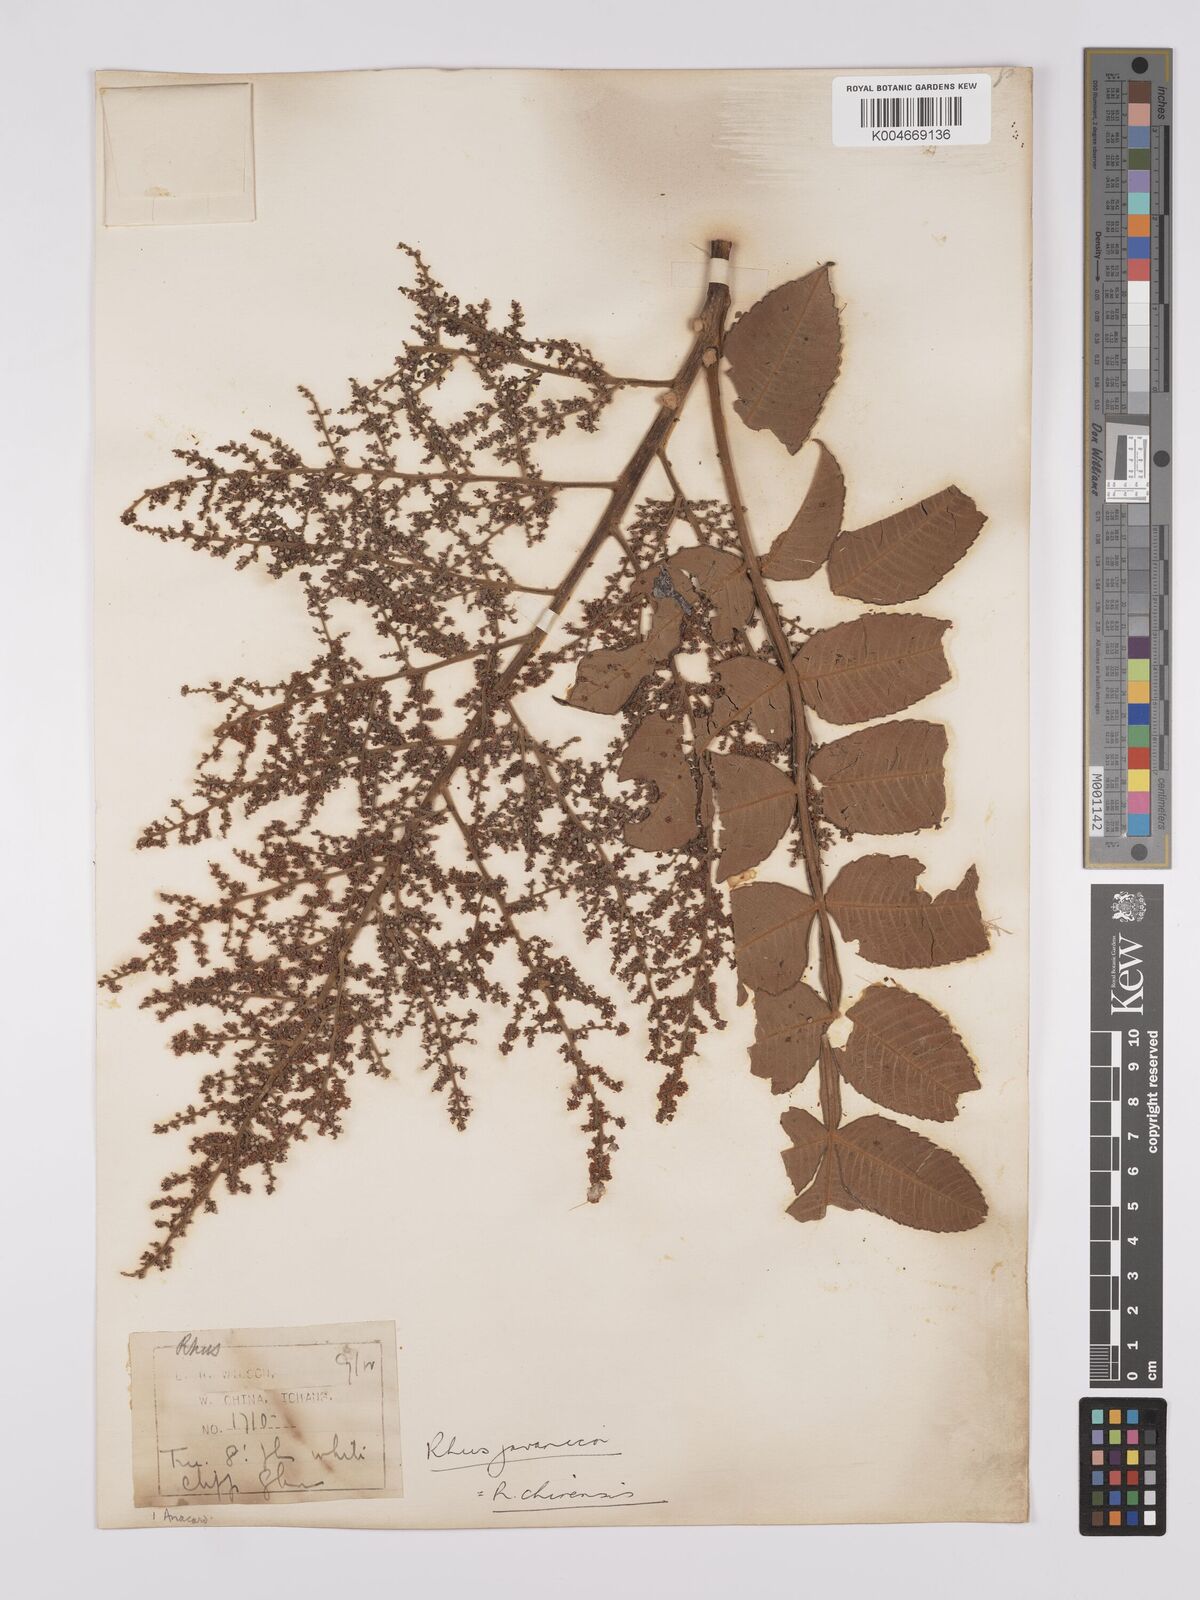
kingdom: Plantae
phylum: Tracheophyta
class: Magnoliopsida
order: Sapindales
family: Simaroubaceae
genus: Brucea
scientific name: Brucea javanica
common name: Macassar kernels
